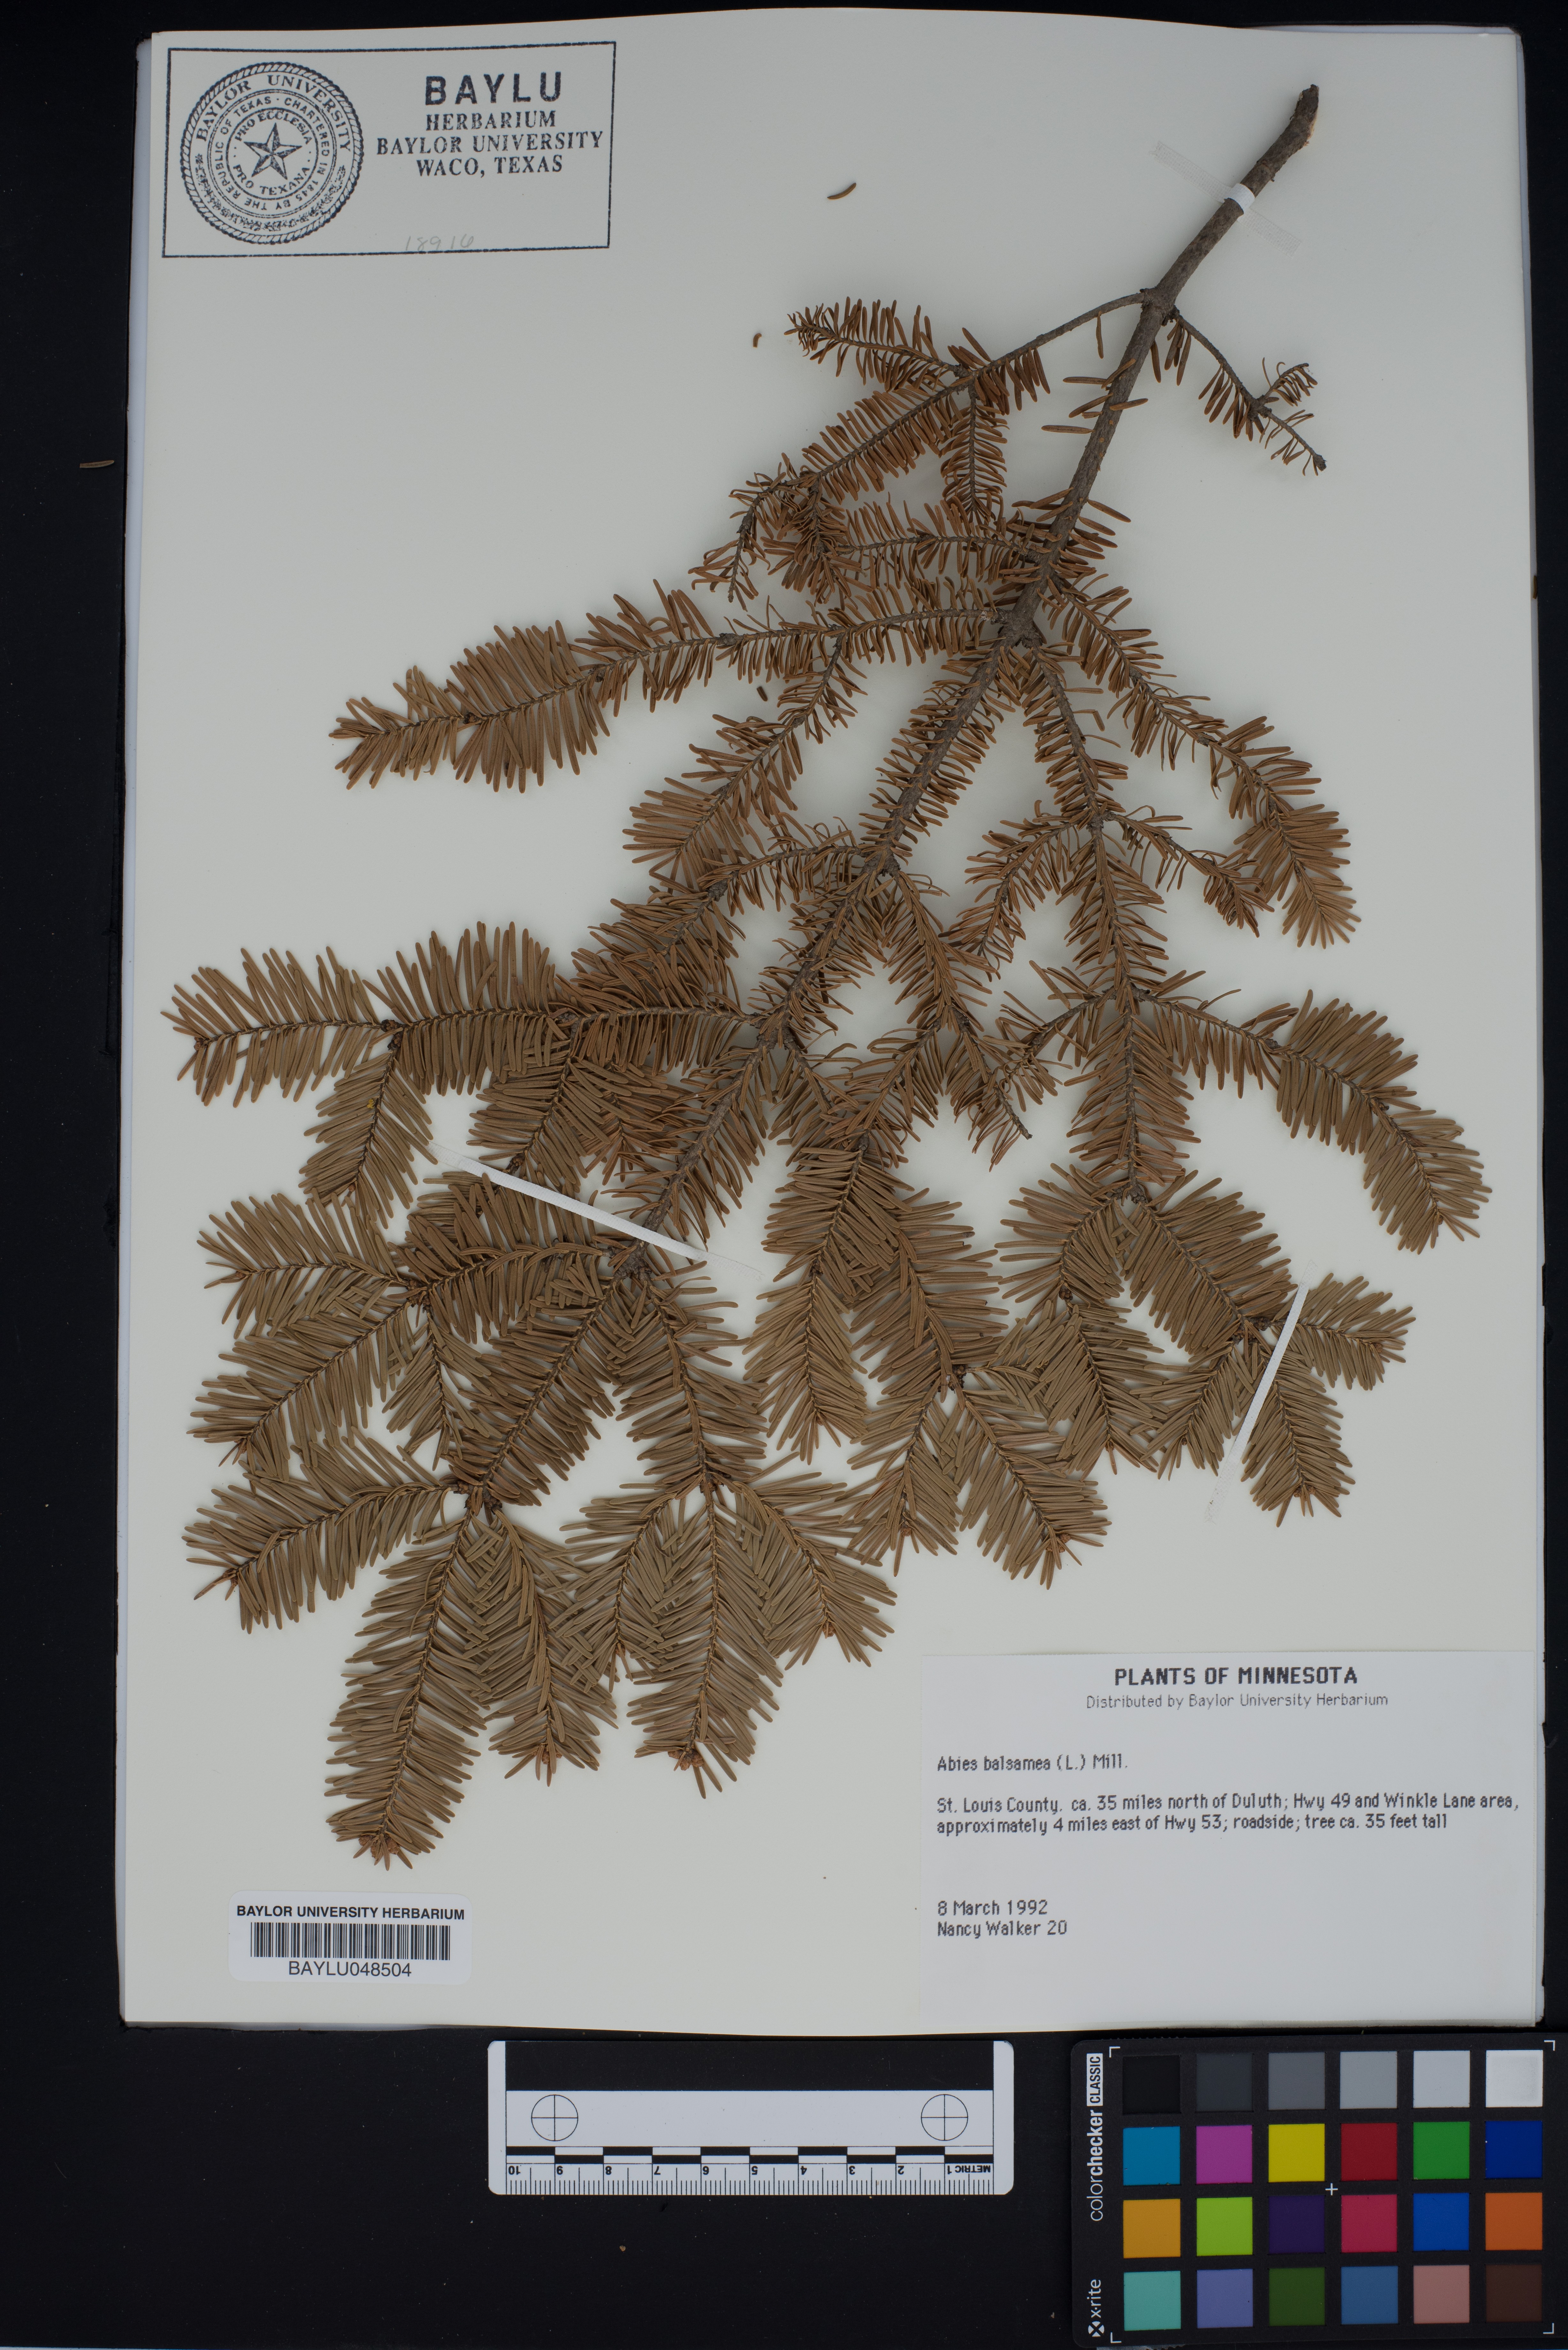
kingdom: Plantae
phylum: Tracheophyta
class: Pinopsida
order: Pinales
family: Pinaceae
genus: Abies
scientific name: Abies balsamea
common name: Balsam fir
